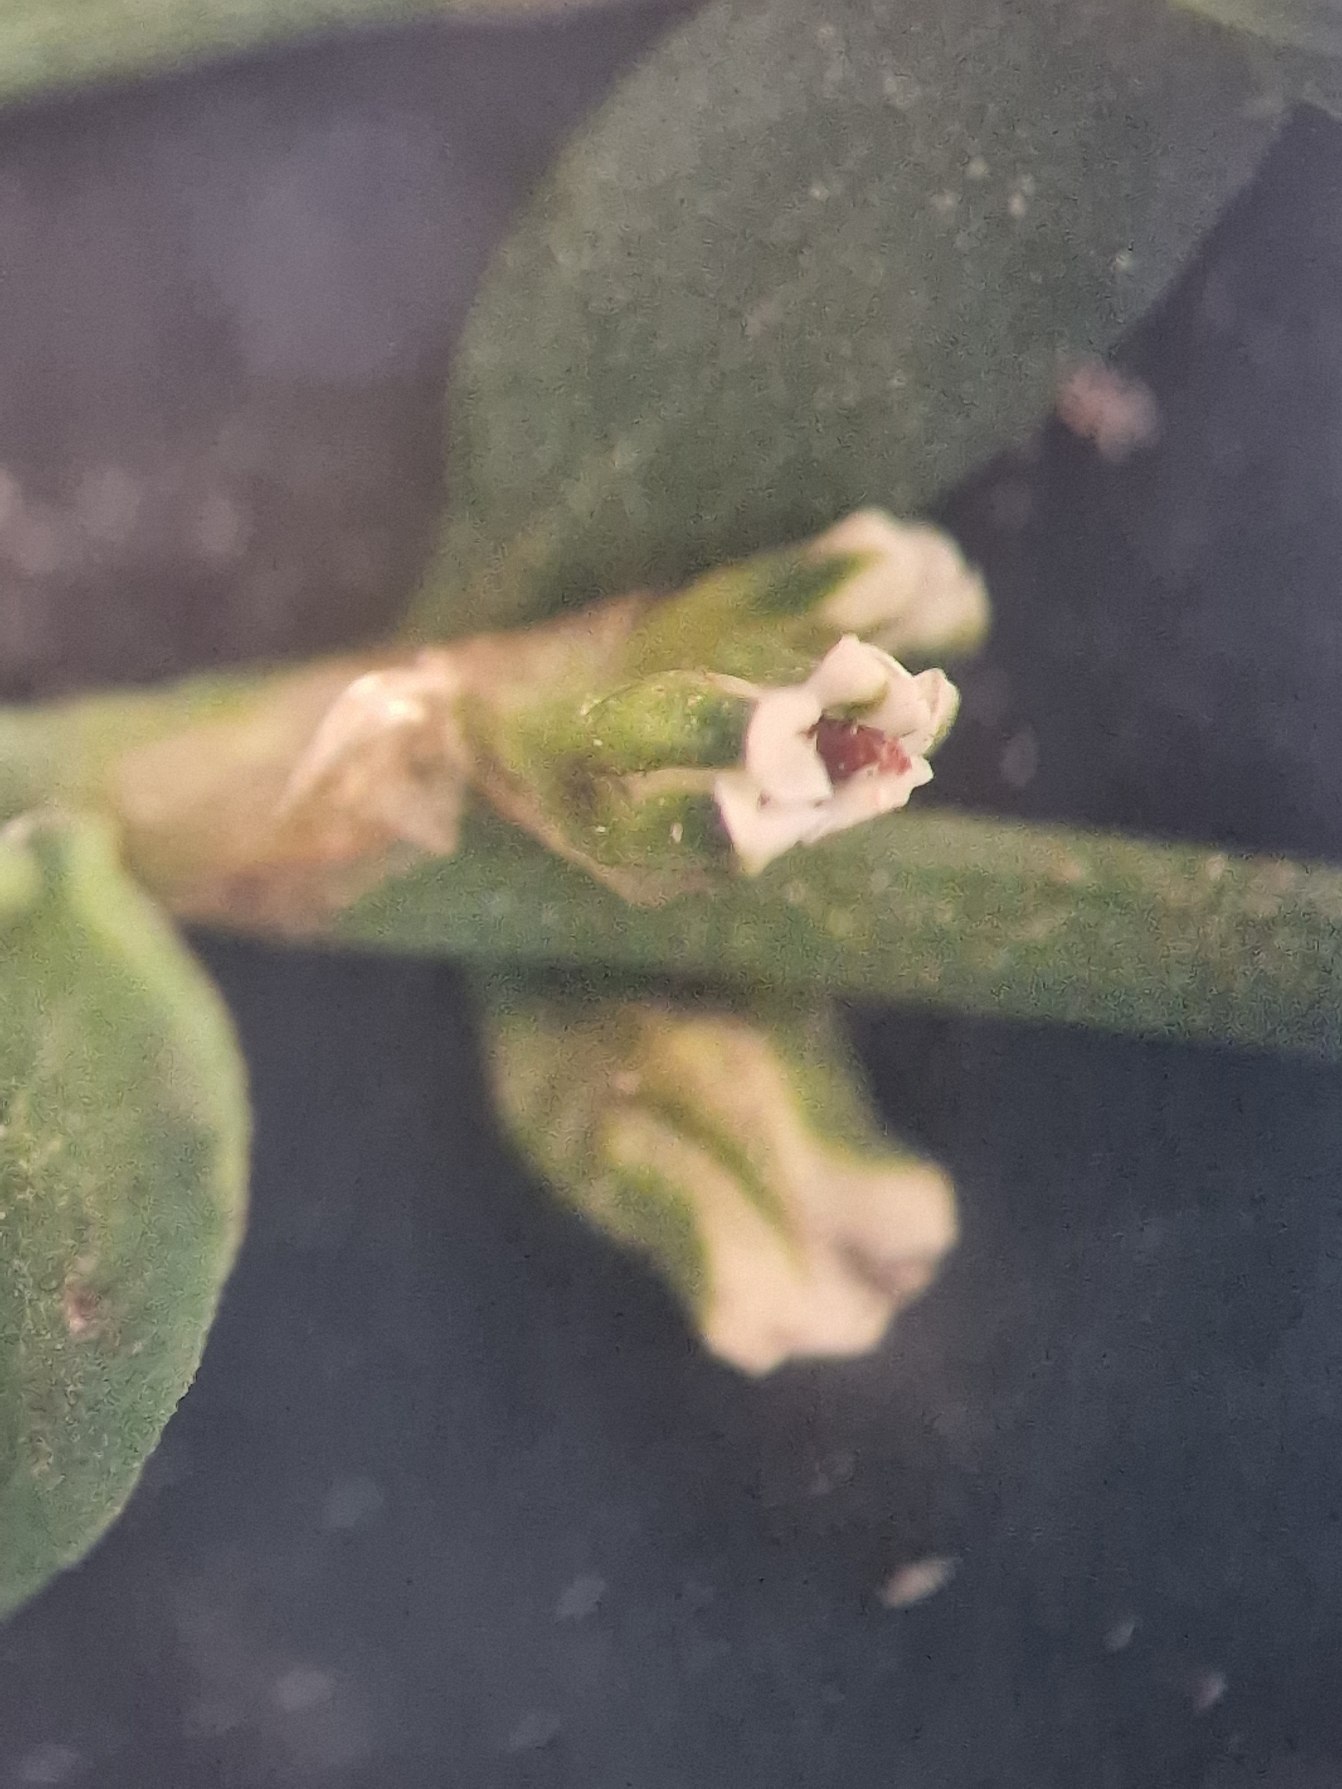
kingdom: Plantae
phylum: Tracheophyta
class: Magnoliopsida
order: Caryophyllales
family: Polygonaceae
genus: Polygonum
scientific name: Polygonum aviculare
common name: Vej-pileurt
